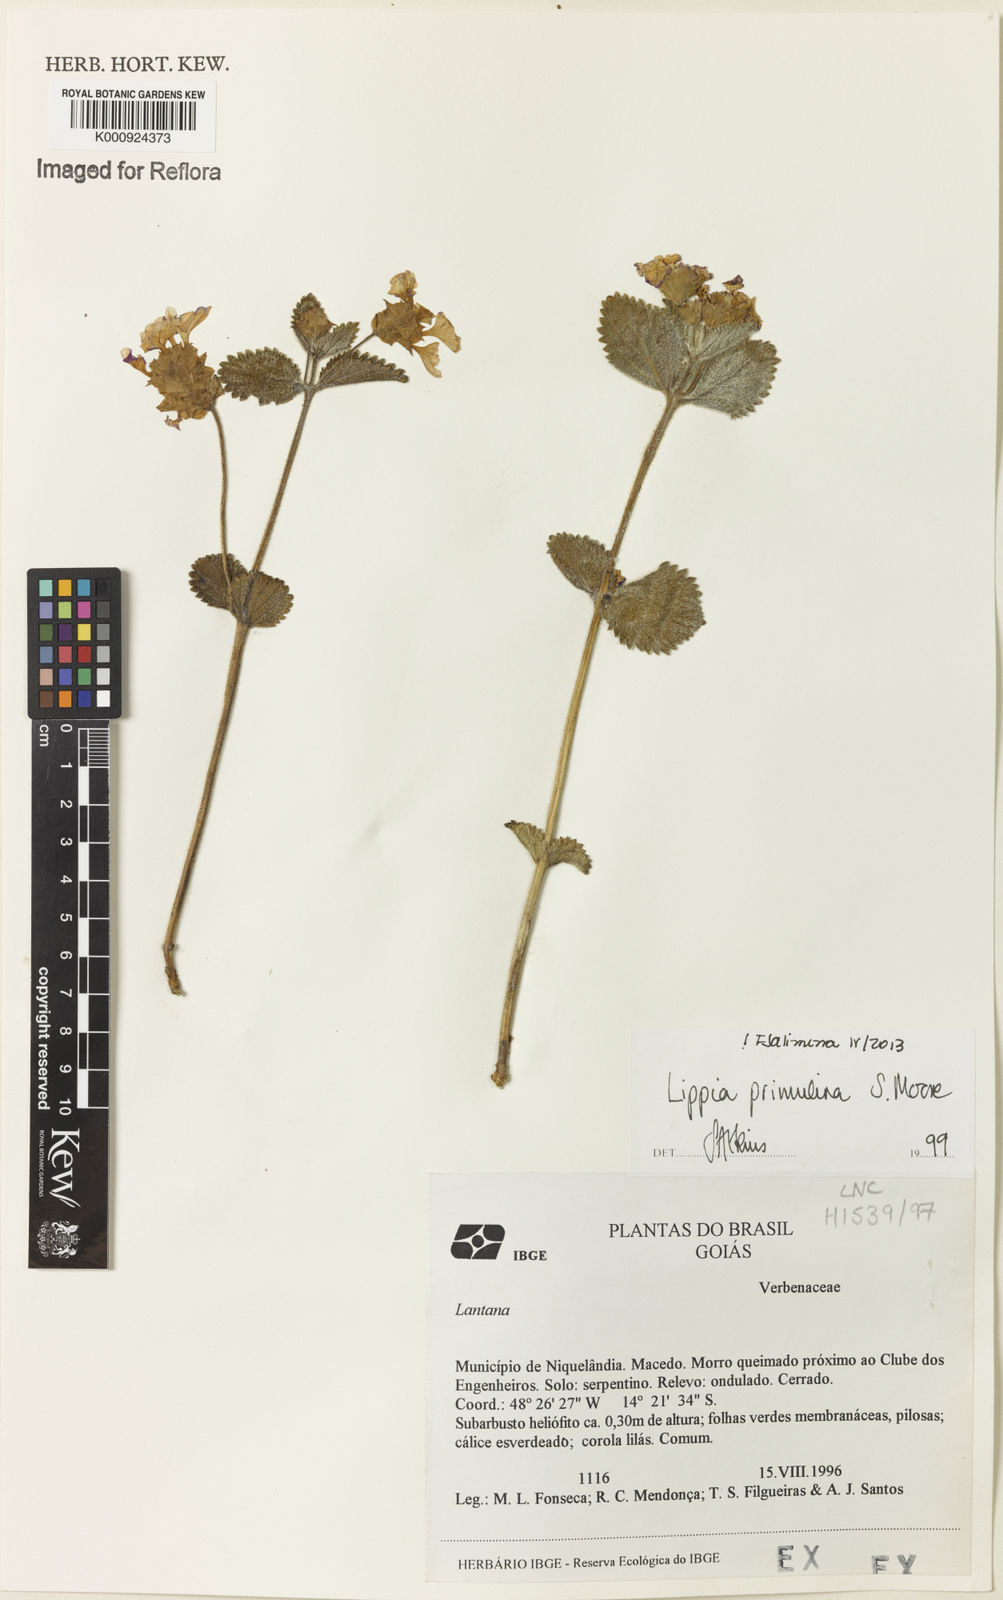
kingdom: Plantae
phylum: Tracheophyta
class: Magnoliopsida
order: Lamiales
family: Verbenaceae
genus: Lippia
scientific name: Lippia primulina
